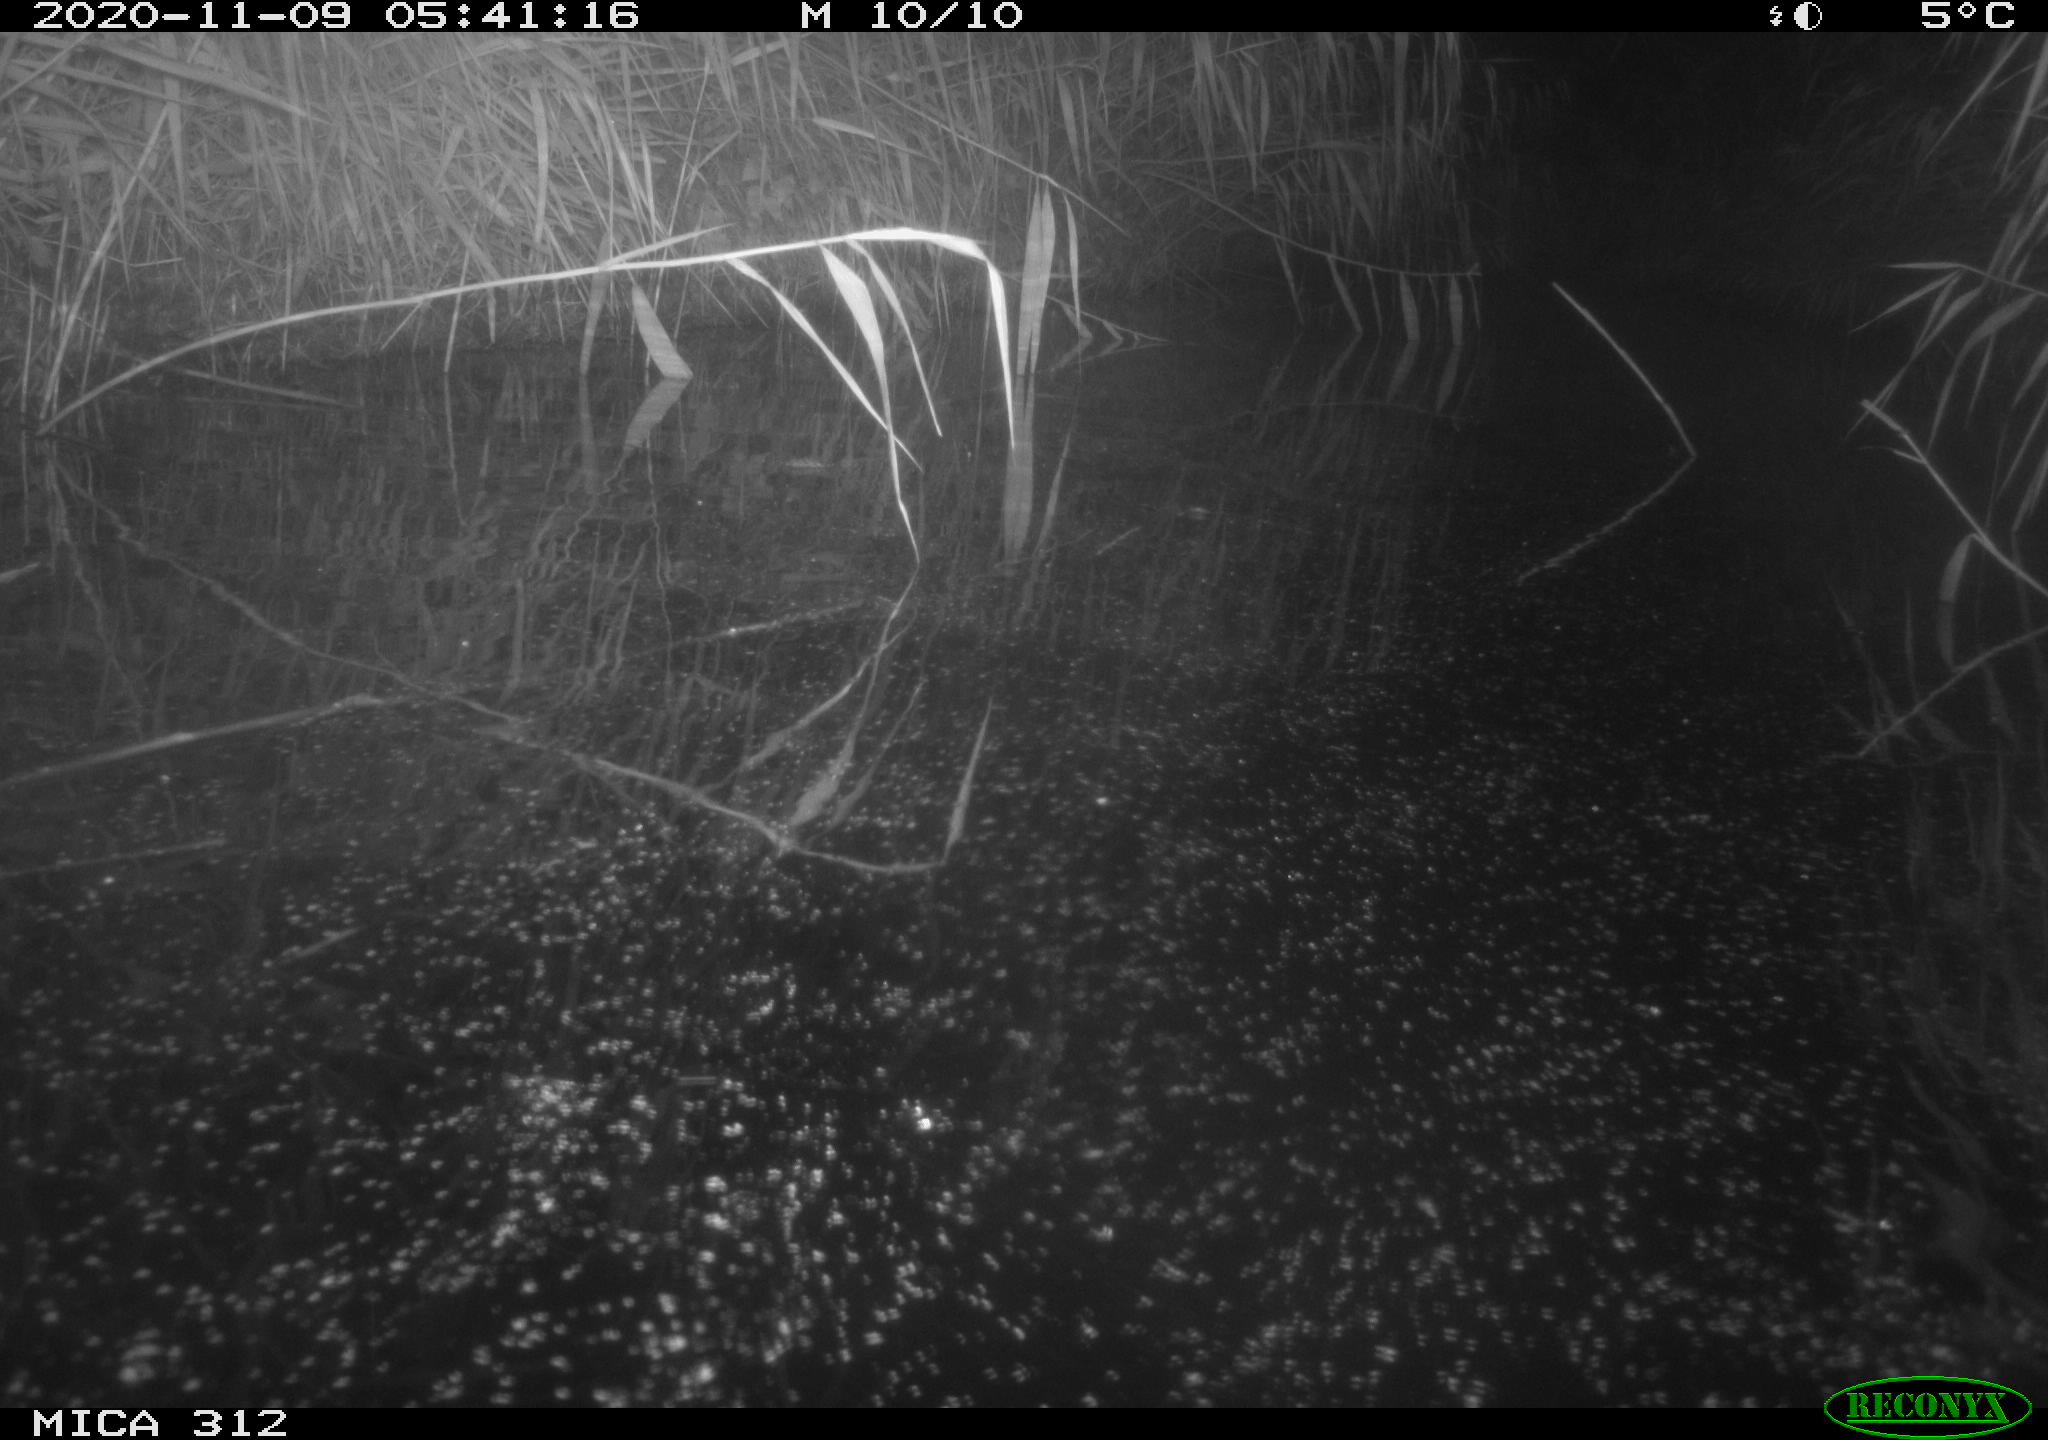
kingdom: Animalia
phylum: Chordata
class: Mammalia
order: Rodentia
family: Muridae
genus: Rattus
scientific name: Rattus norvegicus
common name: Brown rat
